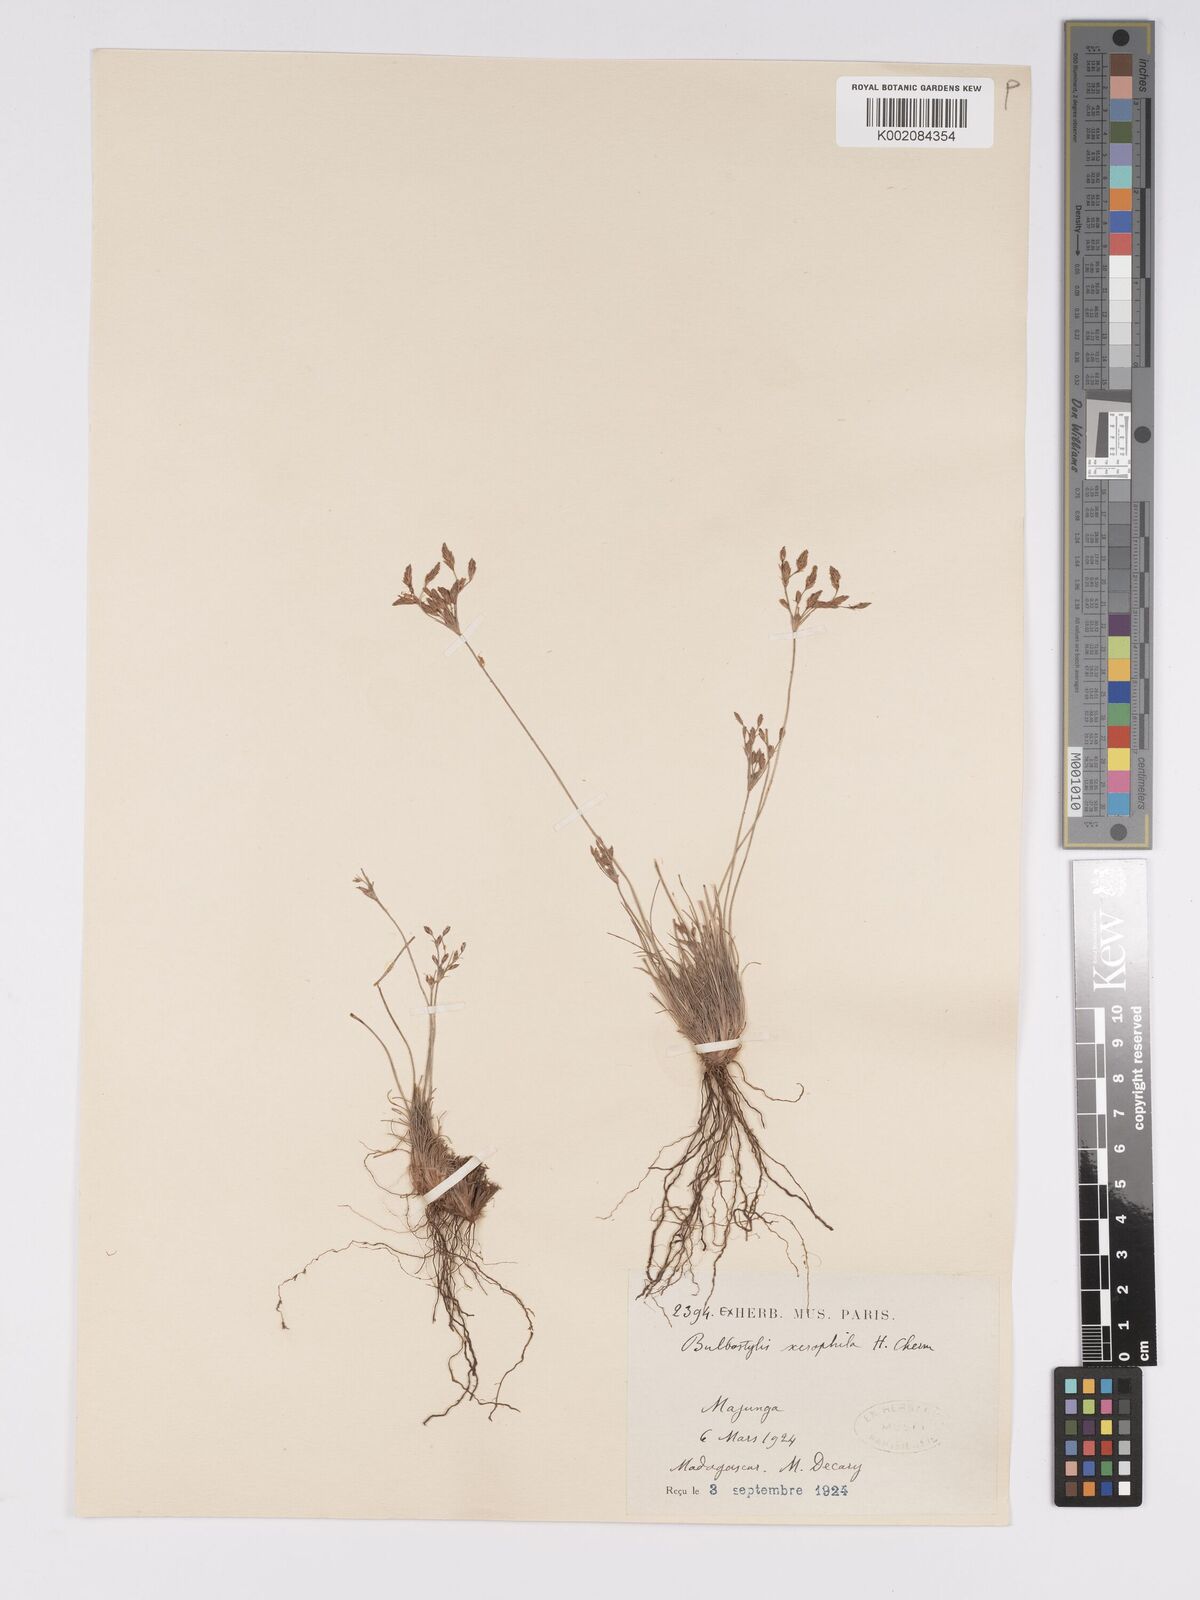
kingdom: Plantae
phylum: Tracheophyta
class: Liliopsida
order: Poales
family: Cyperaceae
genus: Bulbostylis
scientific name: Bulbostylis xerophila
